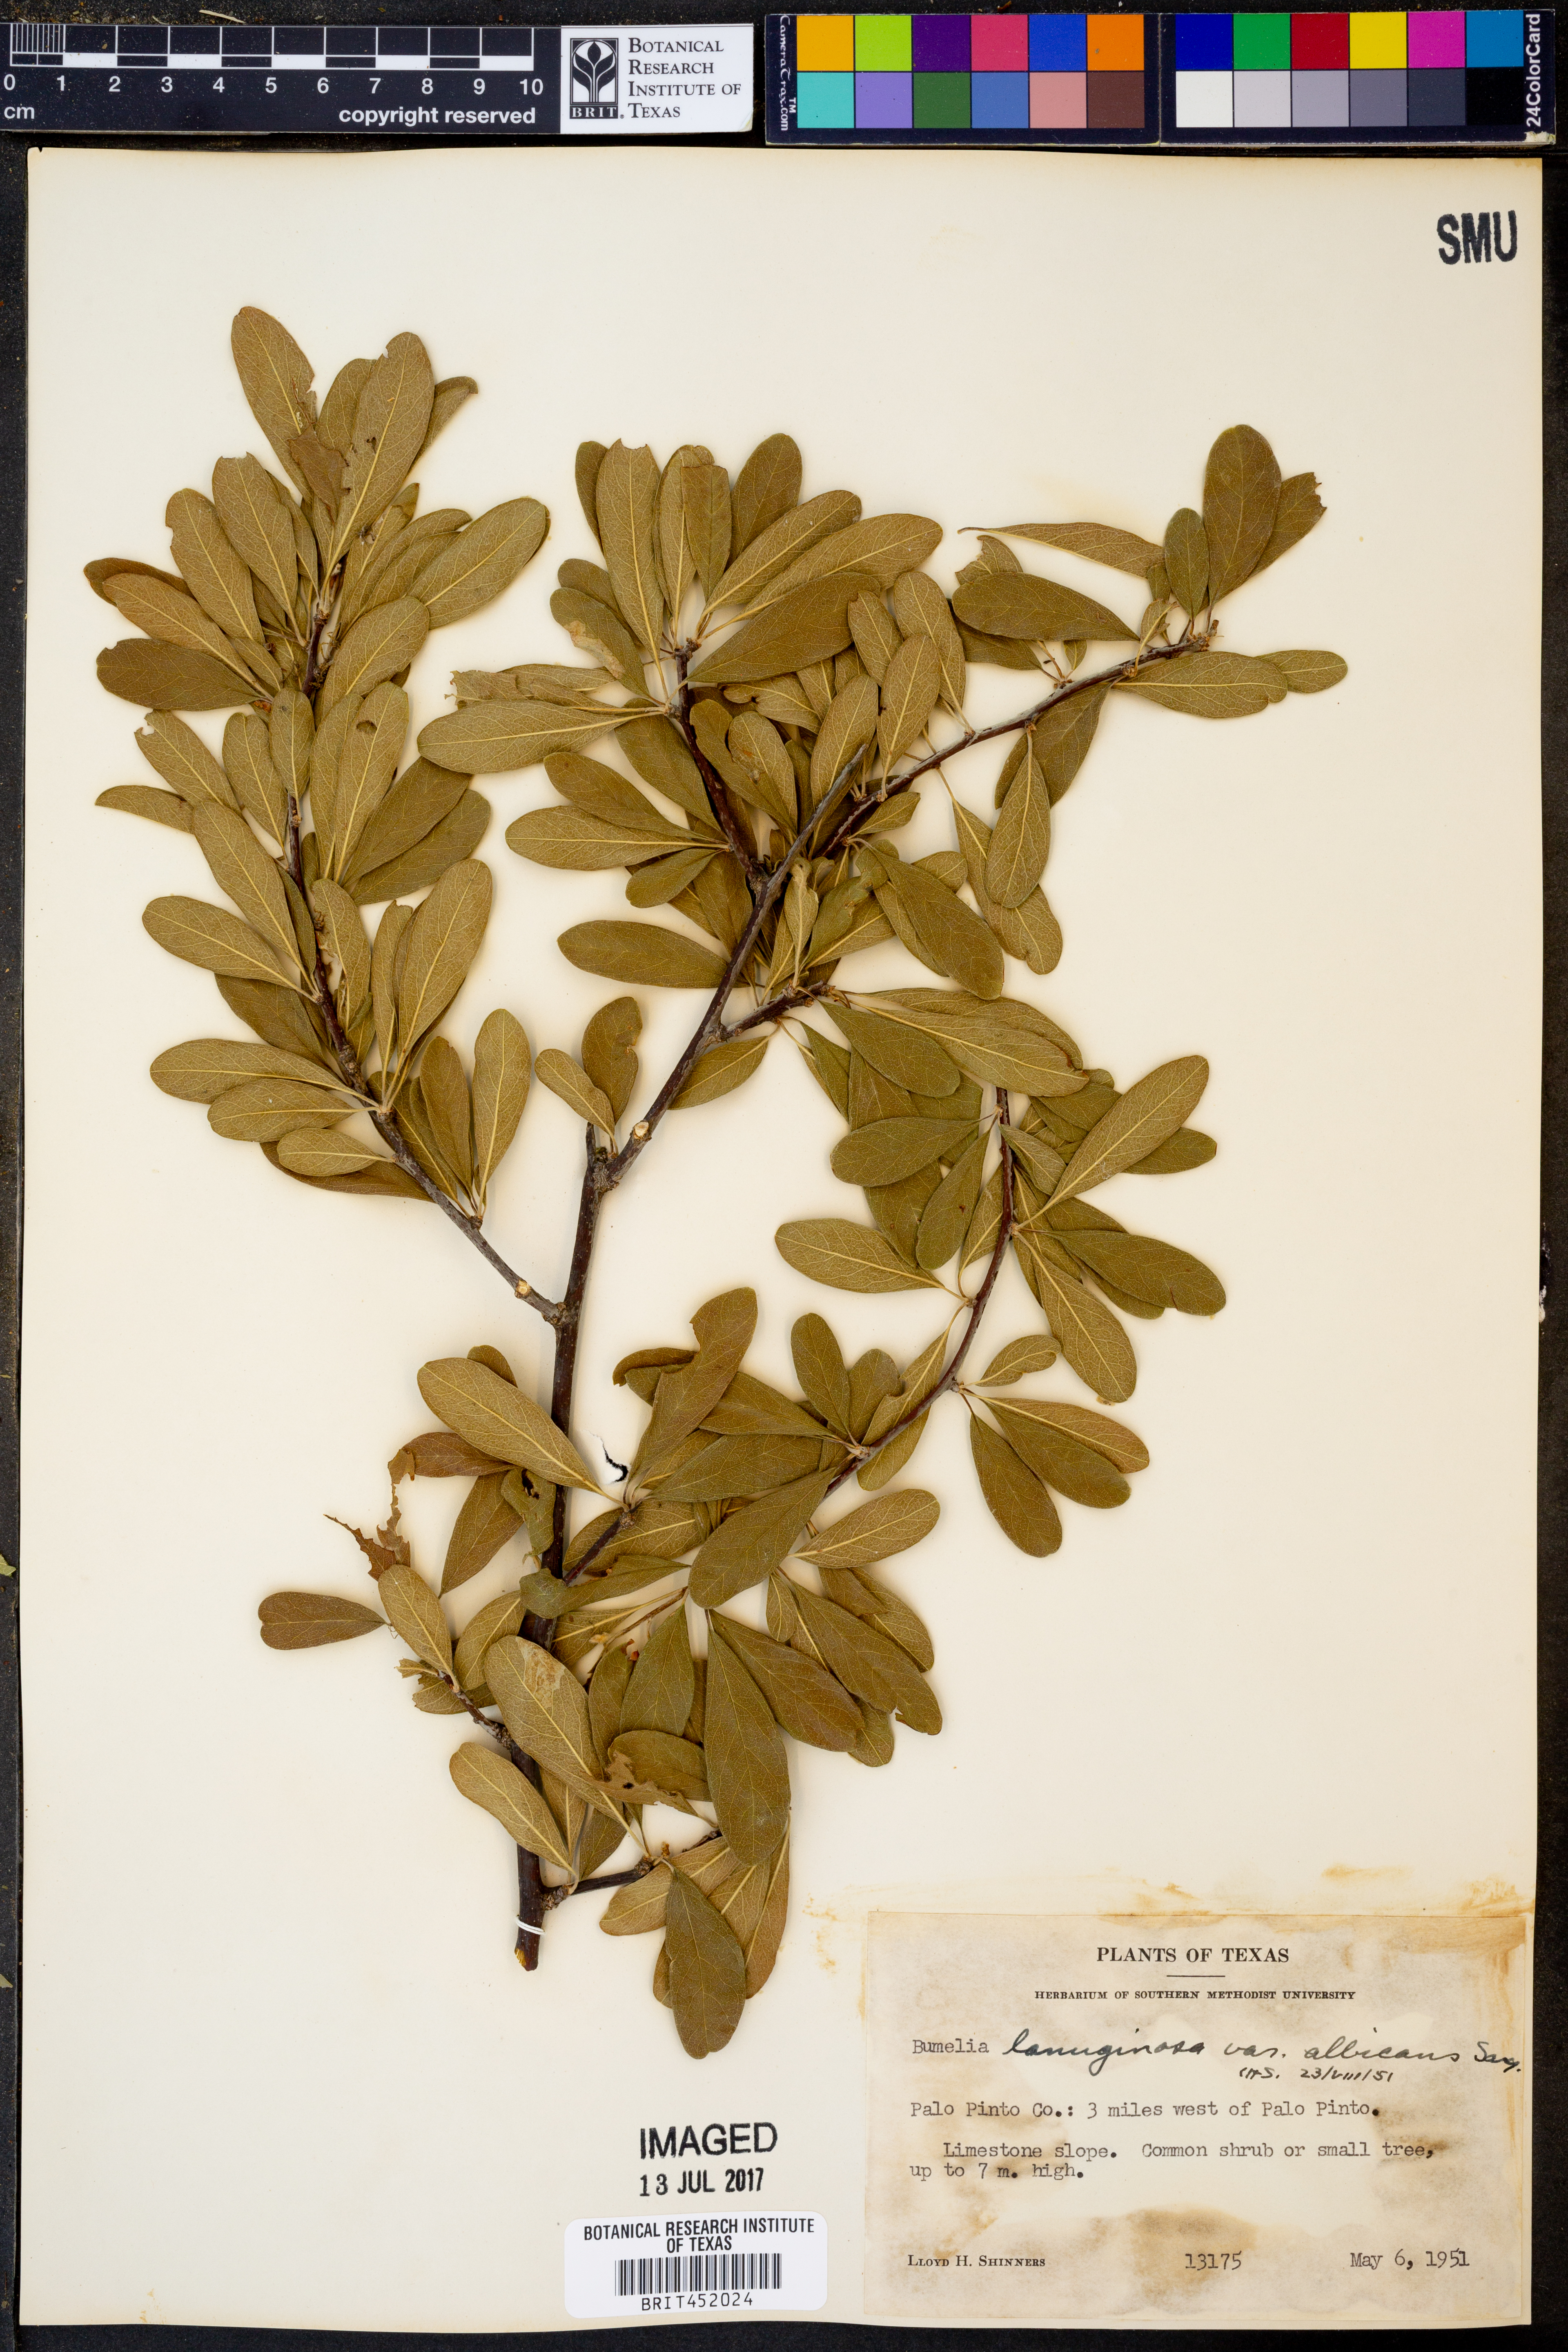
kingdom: Plantae
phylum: Tracheophyta
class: Magnoliopsida
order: Ericales
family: Sapotaceae
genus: Sideroxylon
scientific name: Sideroxylon lanuginosum
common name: Chittamwood
